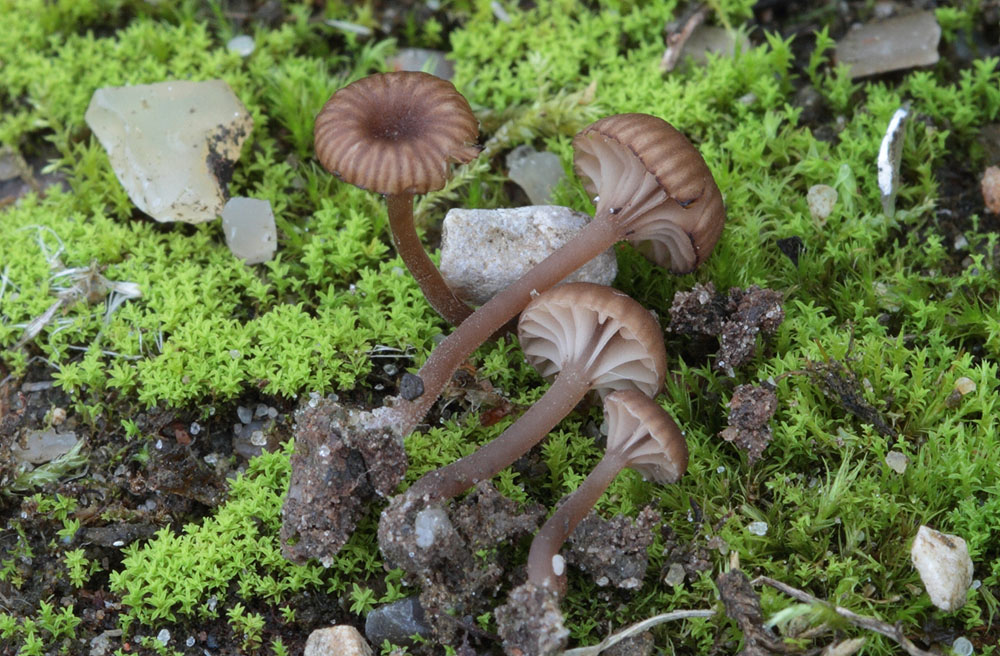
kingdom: Fungi
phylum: Basidiomycota
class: Agaricomycetes
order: Agaricales
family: Hygrophoraceae
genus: Arrhenia
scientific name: Arrhenia rustica
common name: dyster fontænehat
